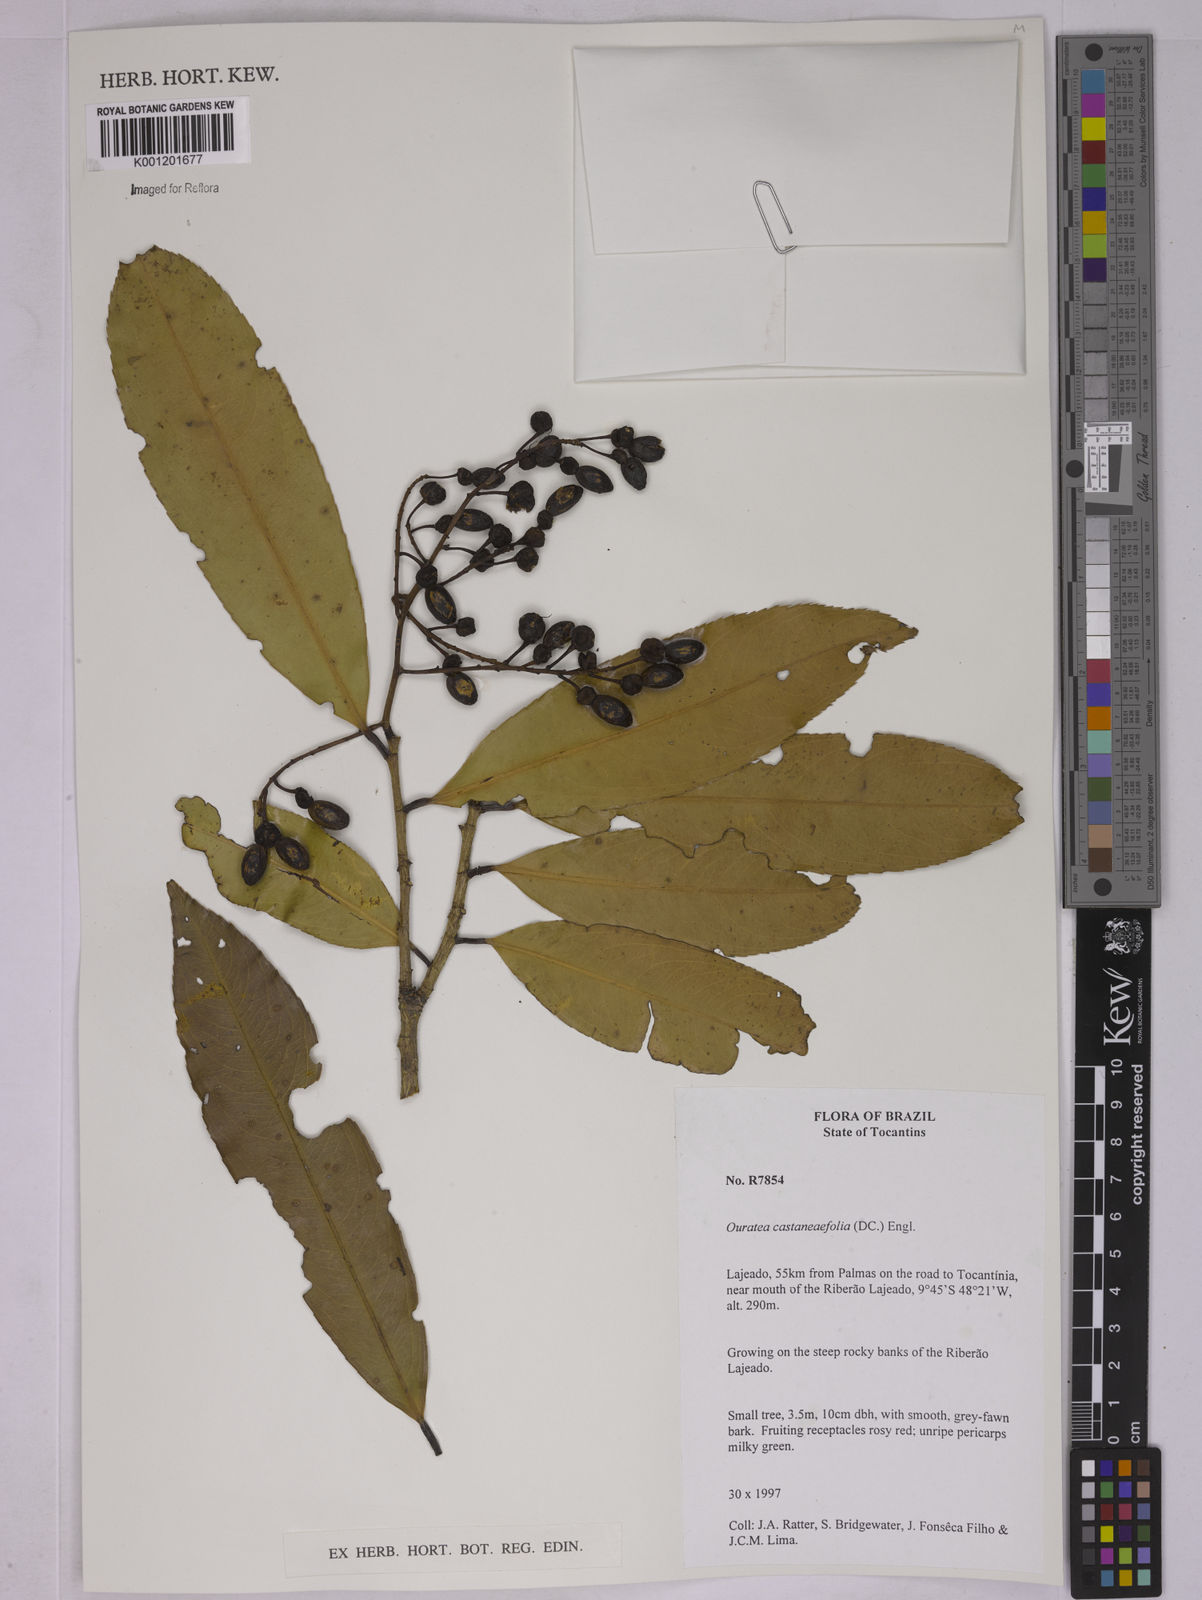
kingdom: Plantae
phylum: Tracheophyta
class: Magnoliopsida
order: Malpighiales
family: Ochnaceae
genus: Ouratea
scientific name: Ouratea castaneifolia
